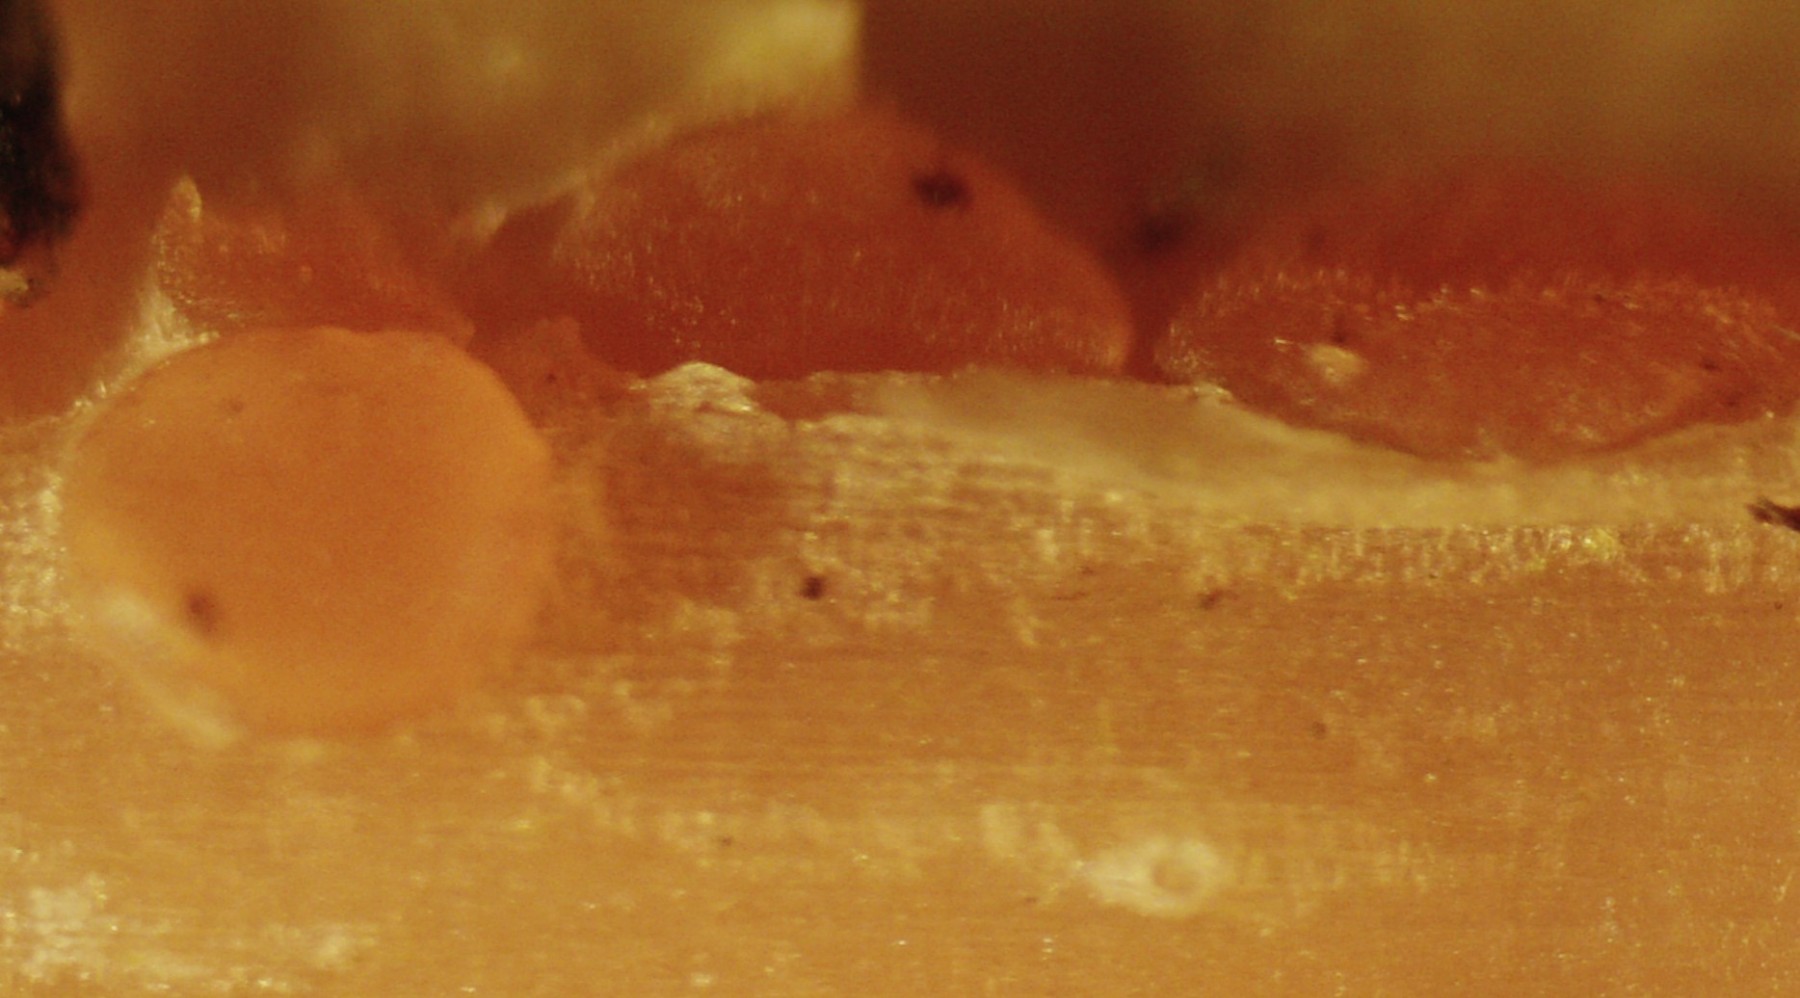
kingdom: Fungi
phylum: Ascomycota
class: Leotiomycetes
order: Helotiales
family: Calloriaceae
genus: Calloria
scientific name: Calloria urticae
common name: nælde-orangeskive
